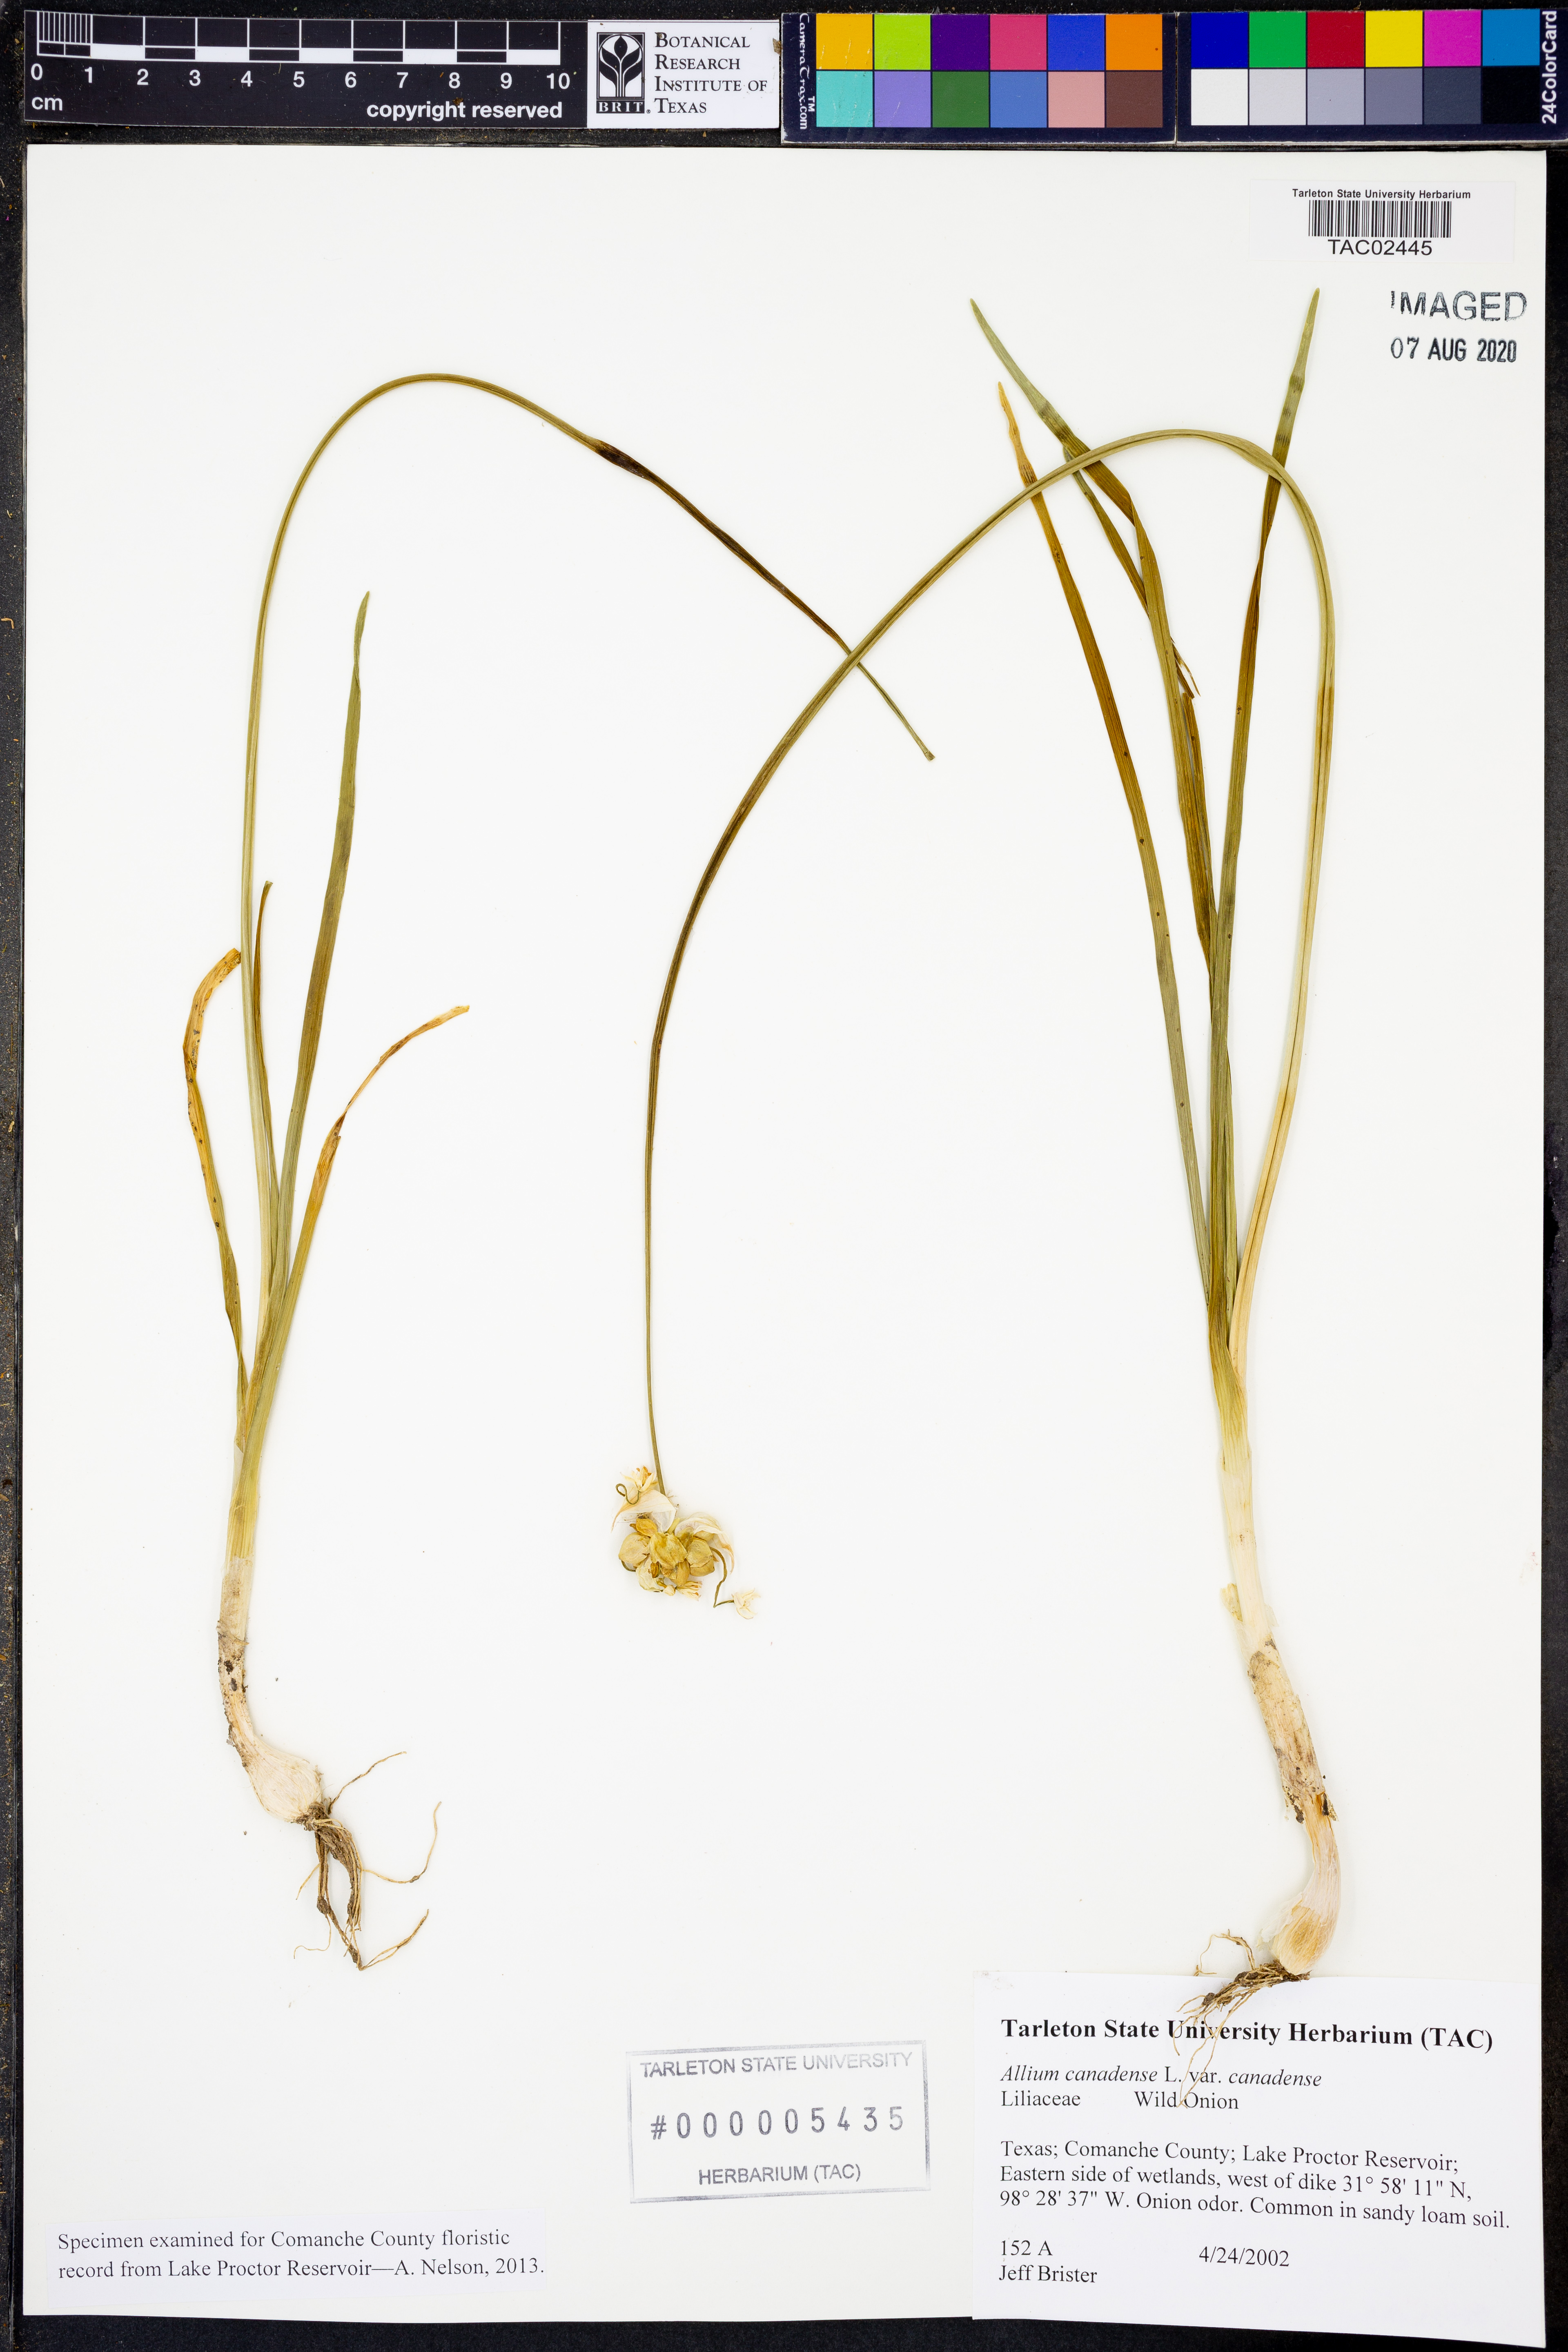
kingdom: Plantae
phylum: Tracheophyta
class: Liliopsida
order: Asparagales
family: Amaryllidaceae
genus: Allium
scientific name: Allium canadense
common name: Meadow garlic
